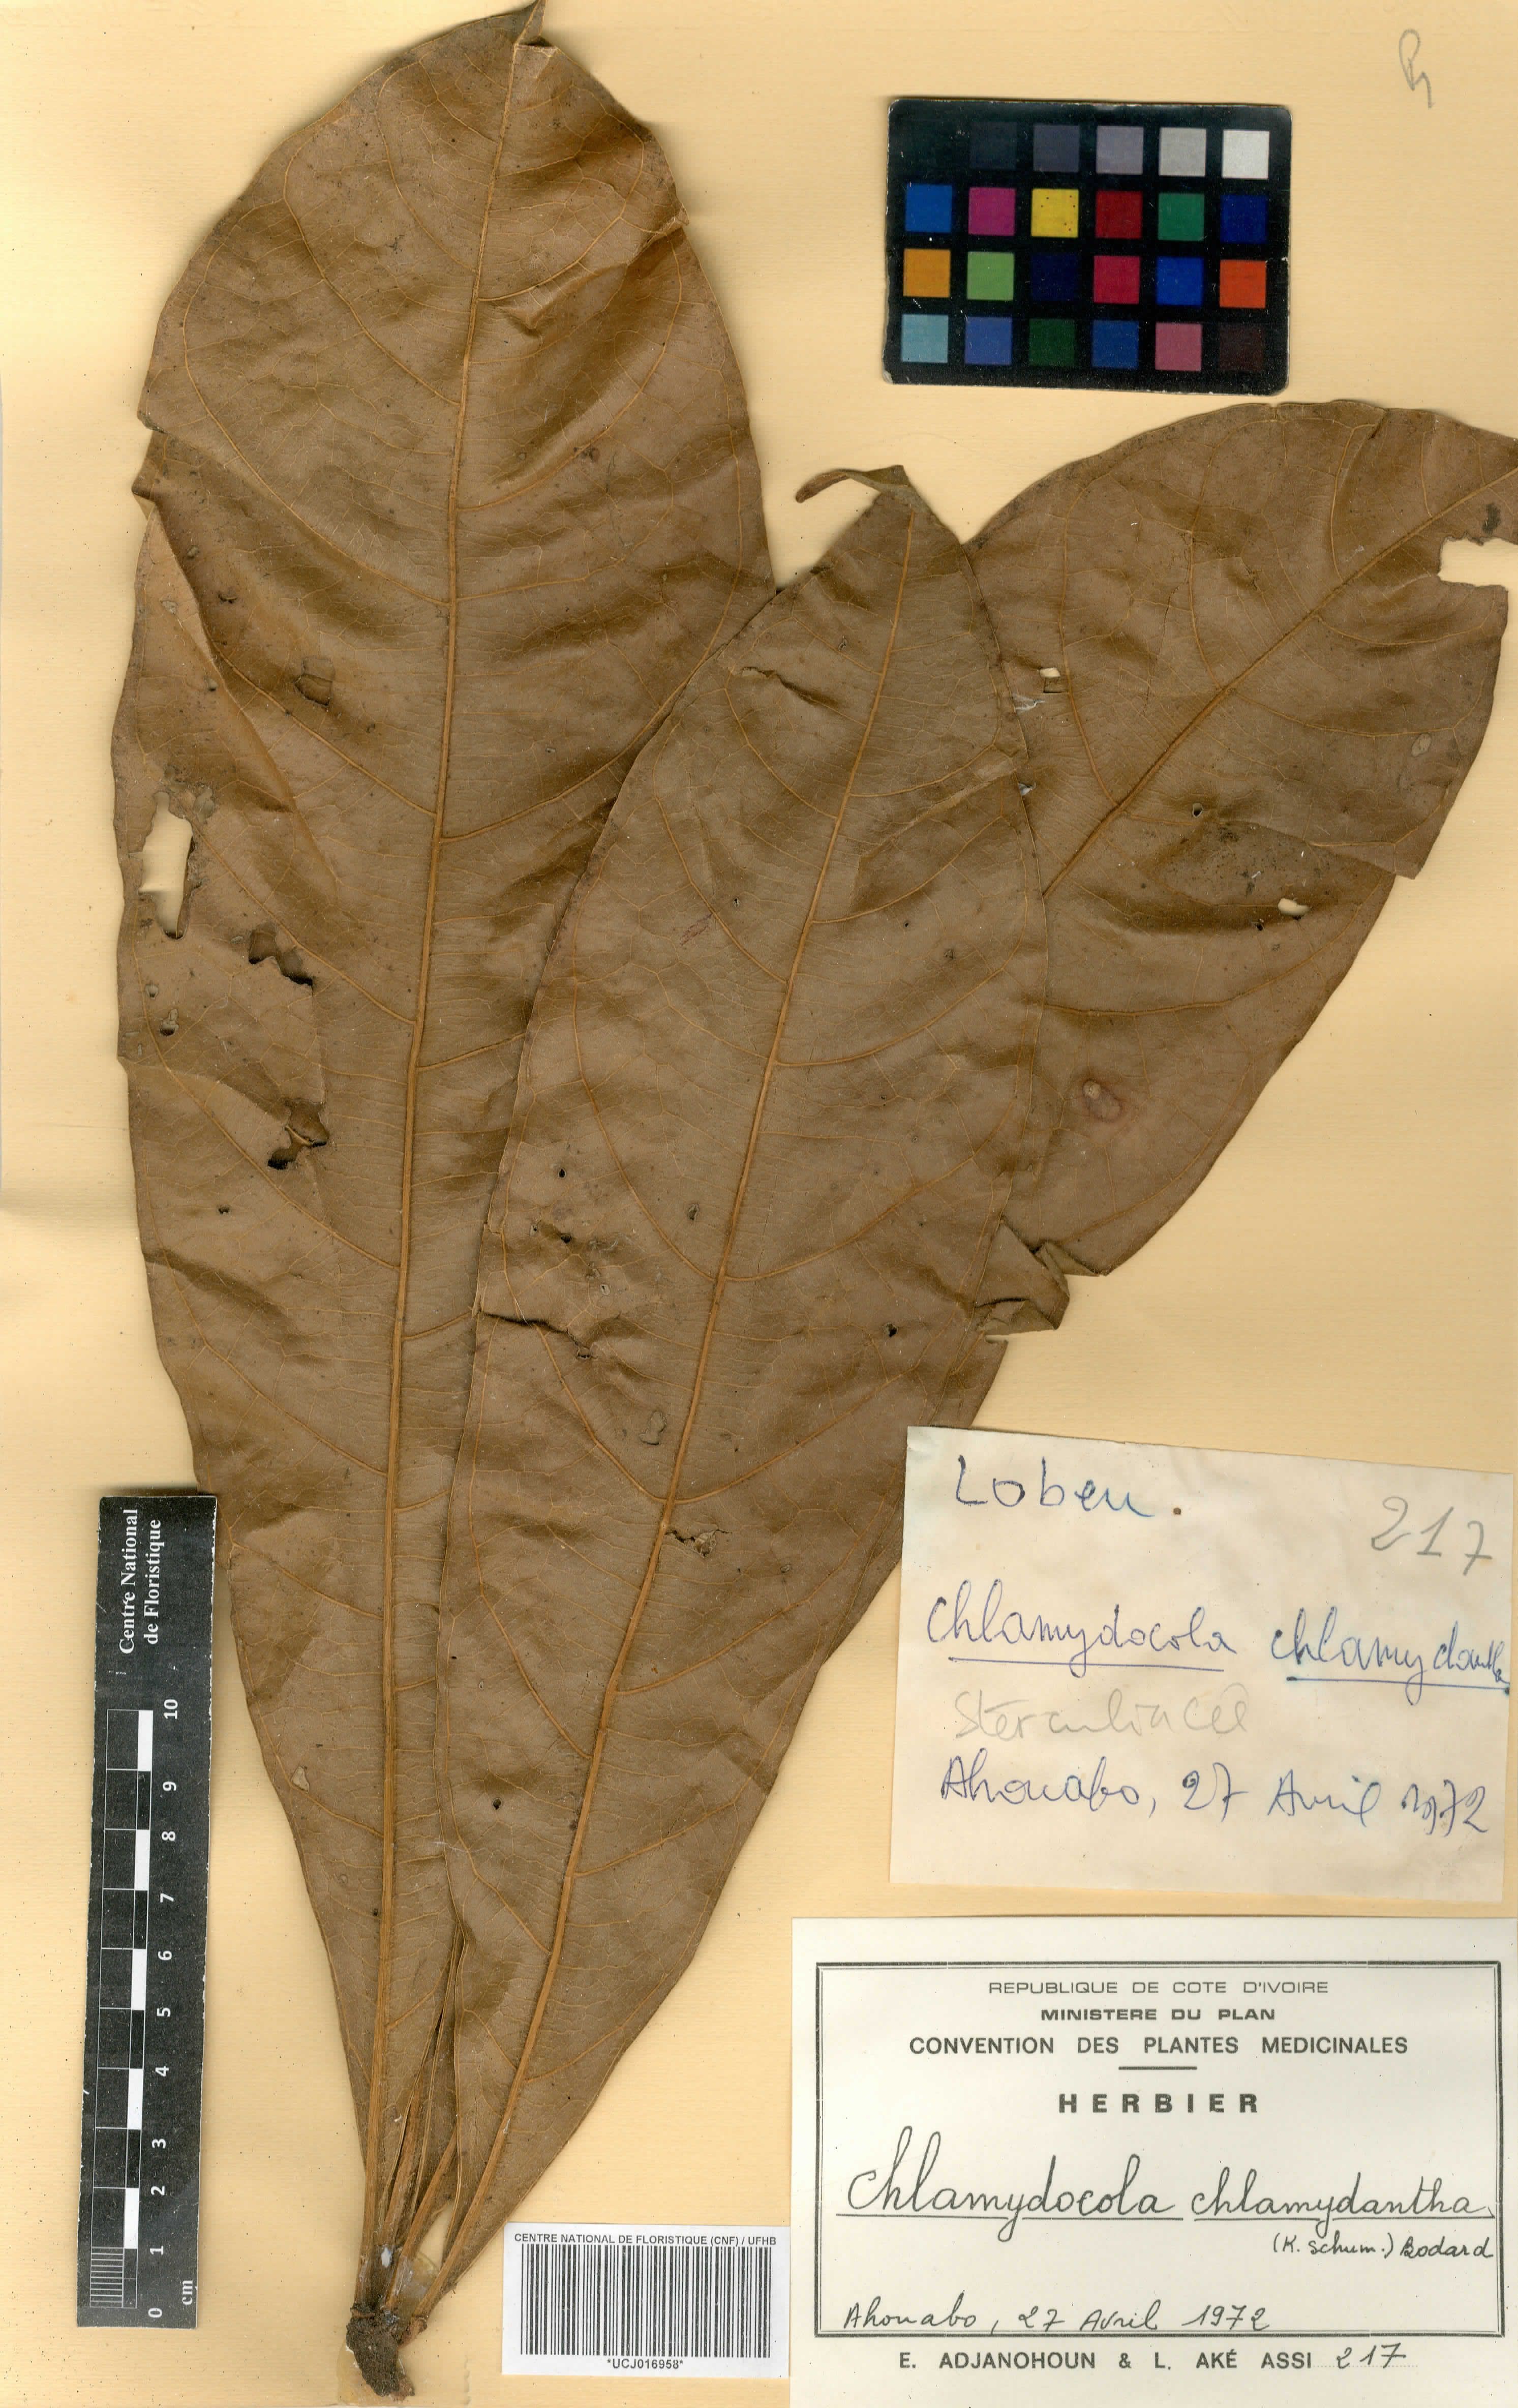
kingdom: Plantae
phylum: Tracheophyta
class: Magnoliopsida
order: Malvales
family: Malvaceae
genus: Cola
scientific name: Cola chlamydantha
